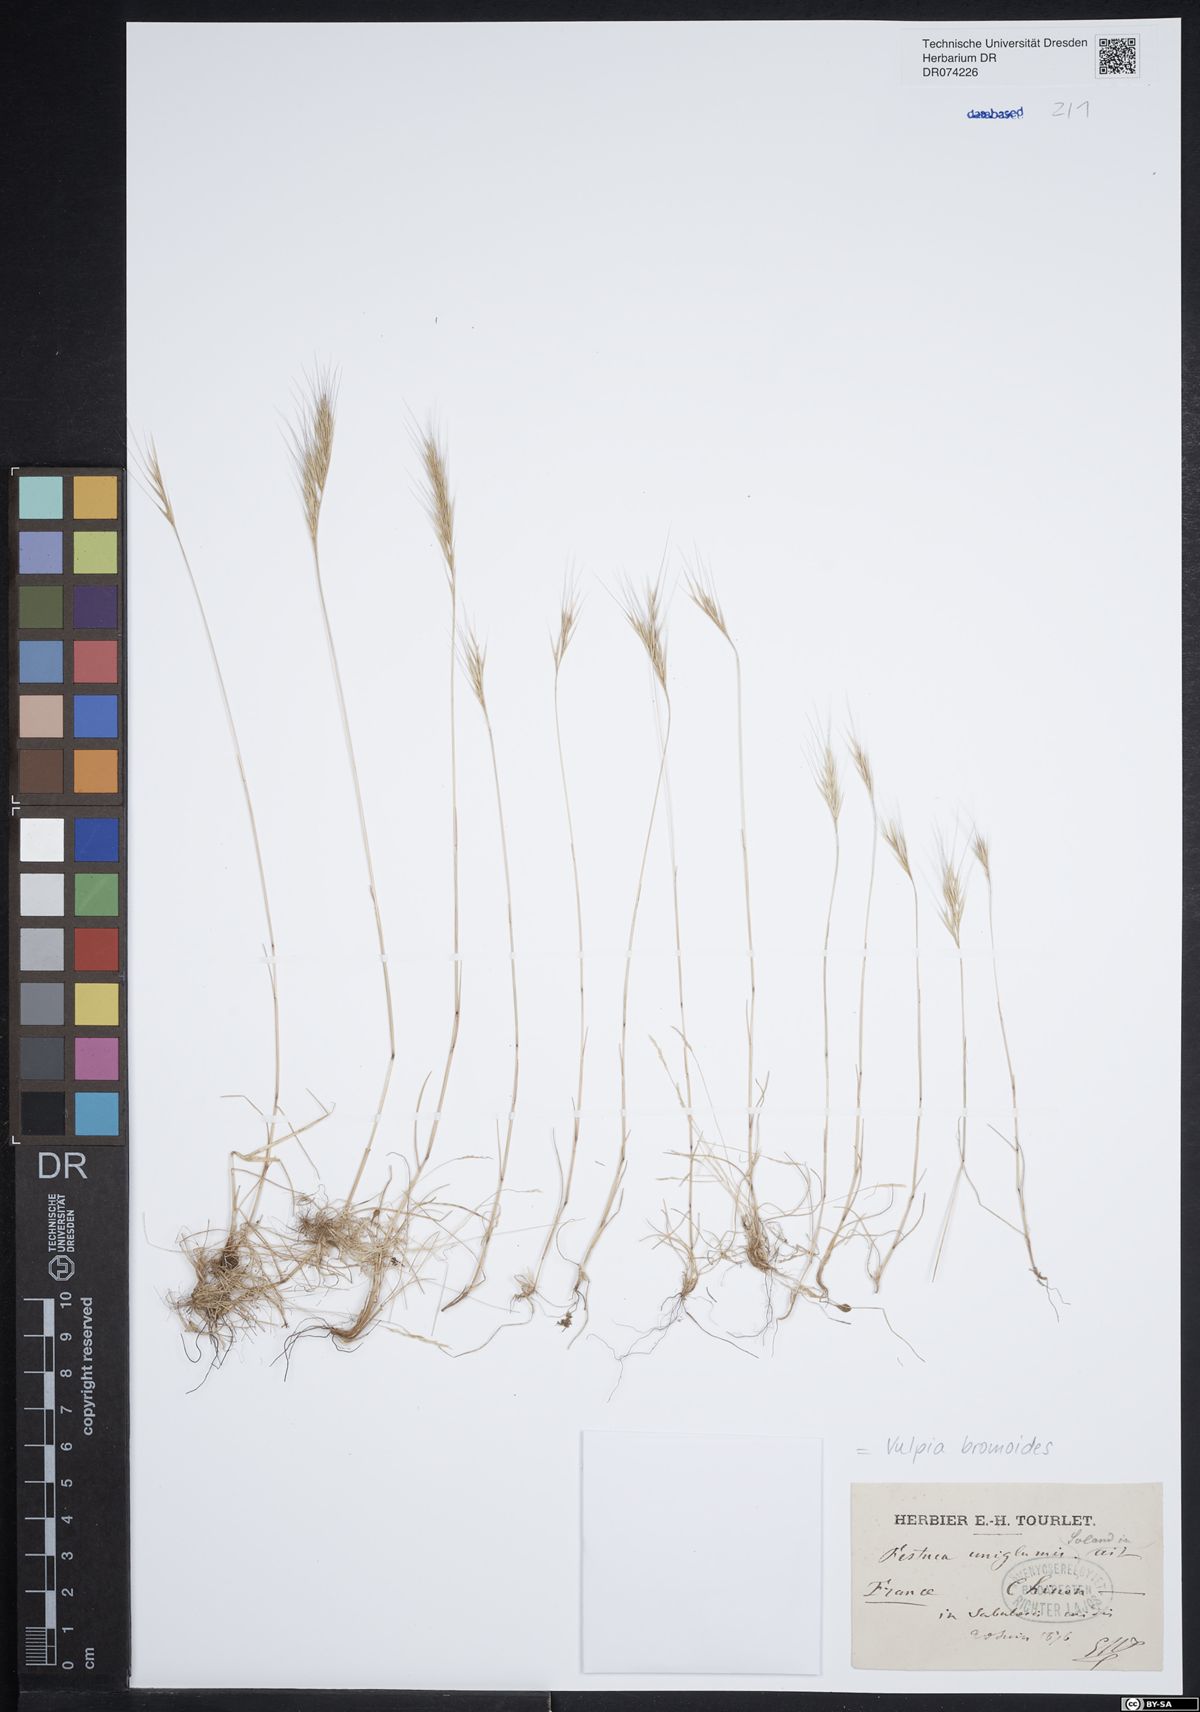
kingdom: Plantae
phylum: Tracheophyta
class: Liliopsida
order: Poales
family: Poaceae
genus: Festuca
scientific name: Festuca bromoides
